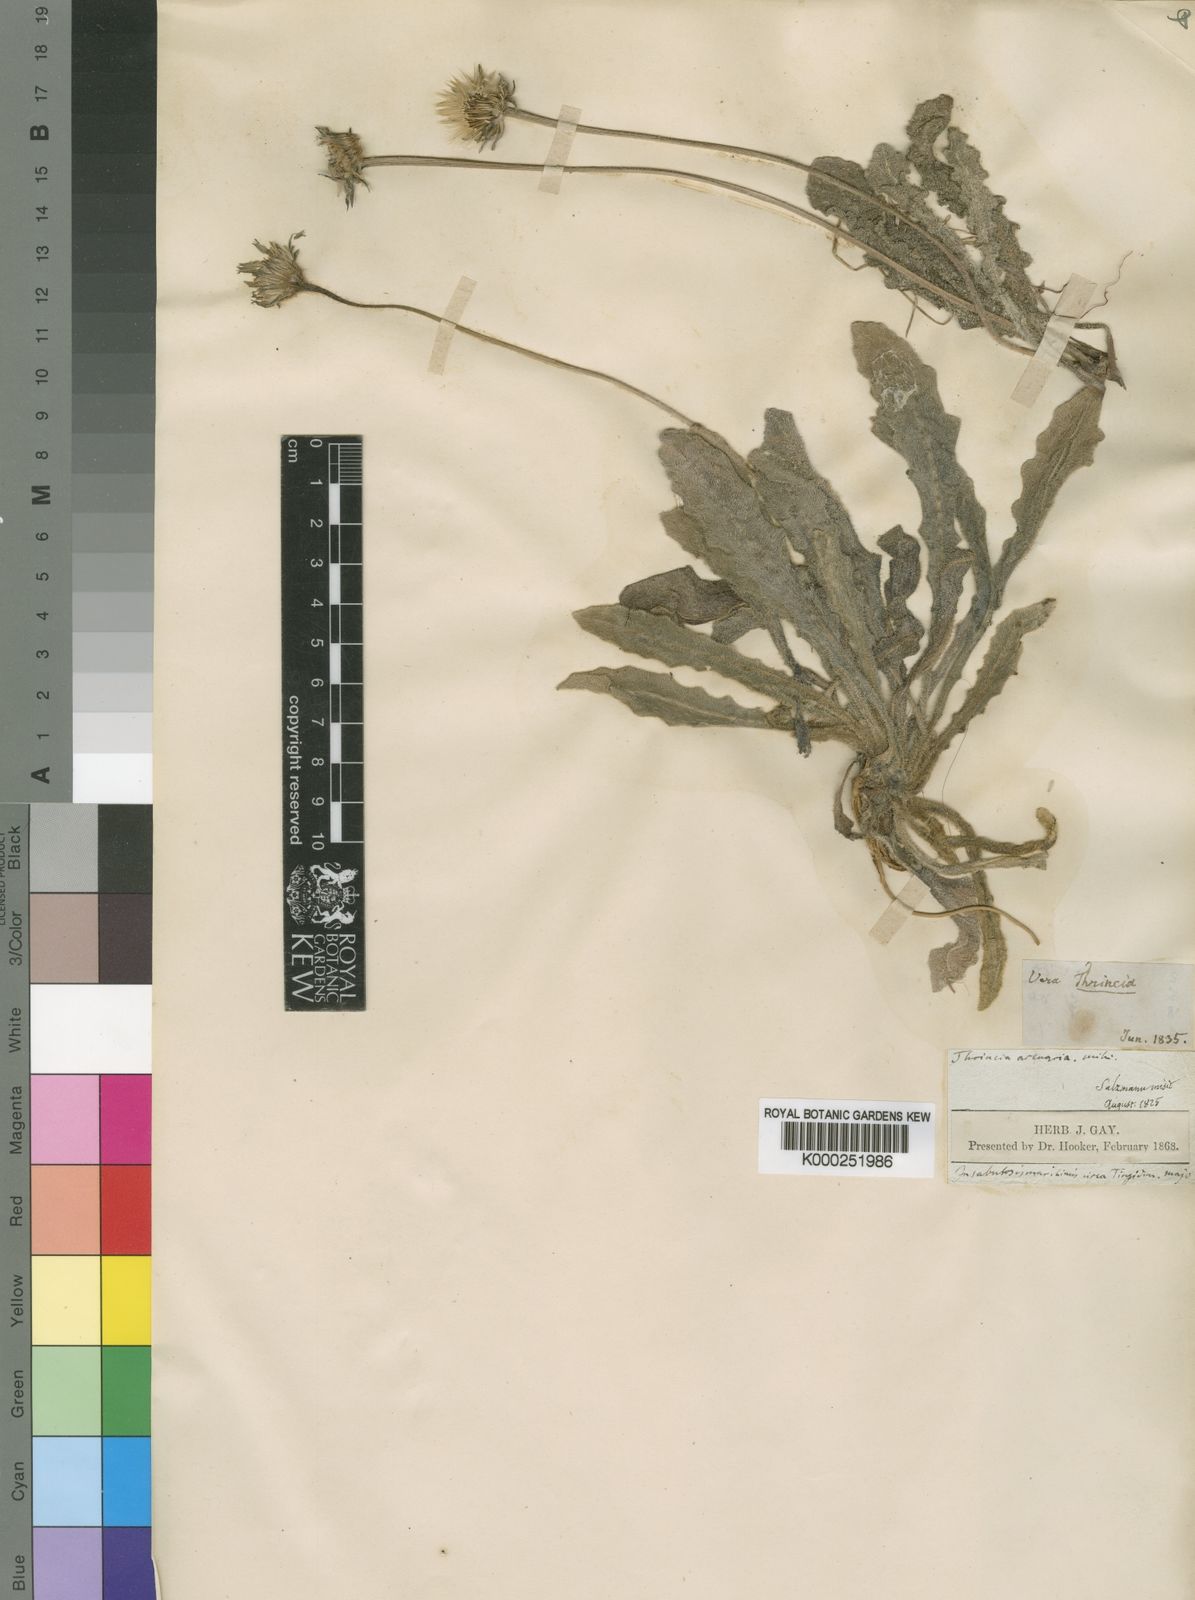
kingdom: Plantae
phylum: Tracheophyta
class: Magnoliopsida
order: Asterales
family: Asteraceae
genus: Hypochaeris
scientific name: Hypochaeris arenaria
